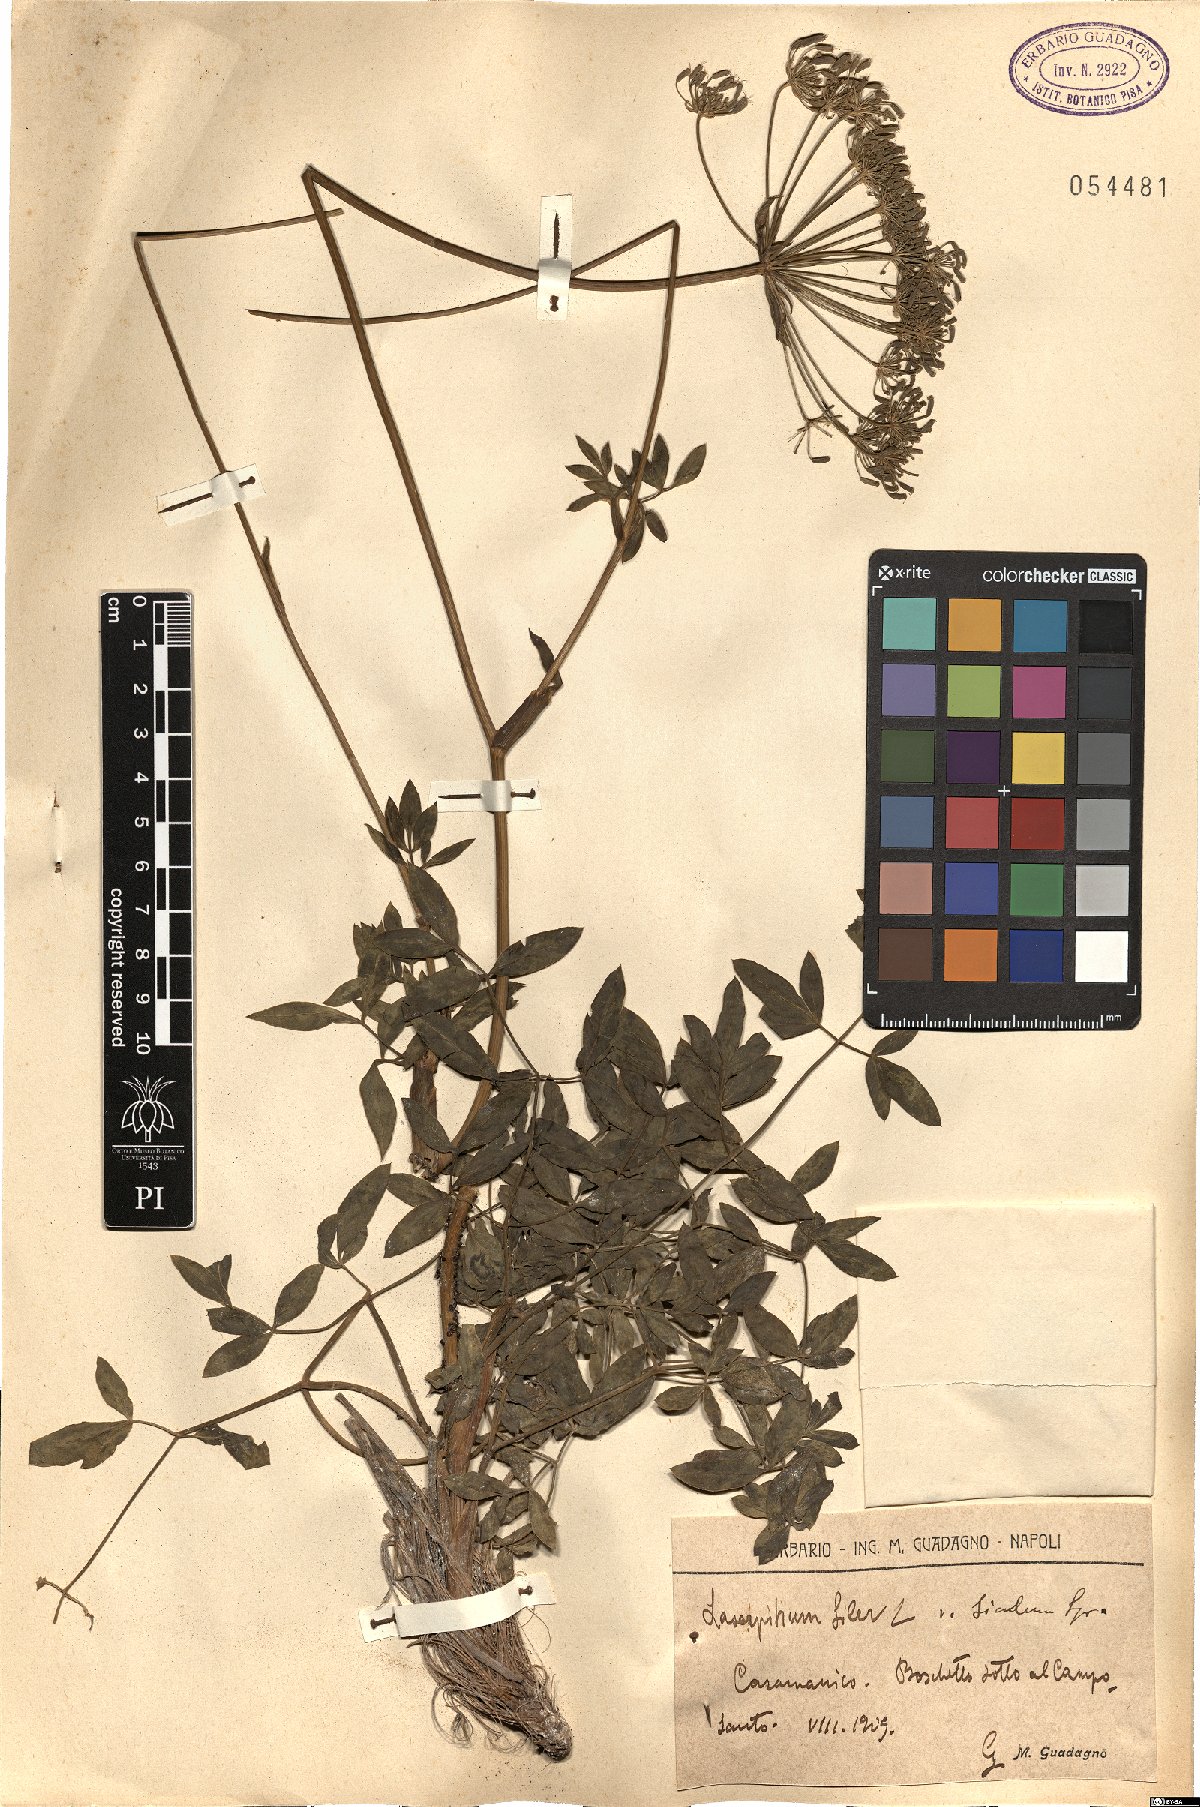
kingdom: Plantae
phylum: Tracheophyta
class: Magnoliopsida
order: Apiales
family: Apiaceae
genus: Siler
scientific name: Siler montanum
